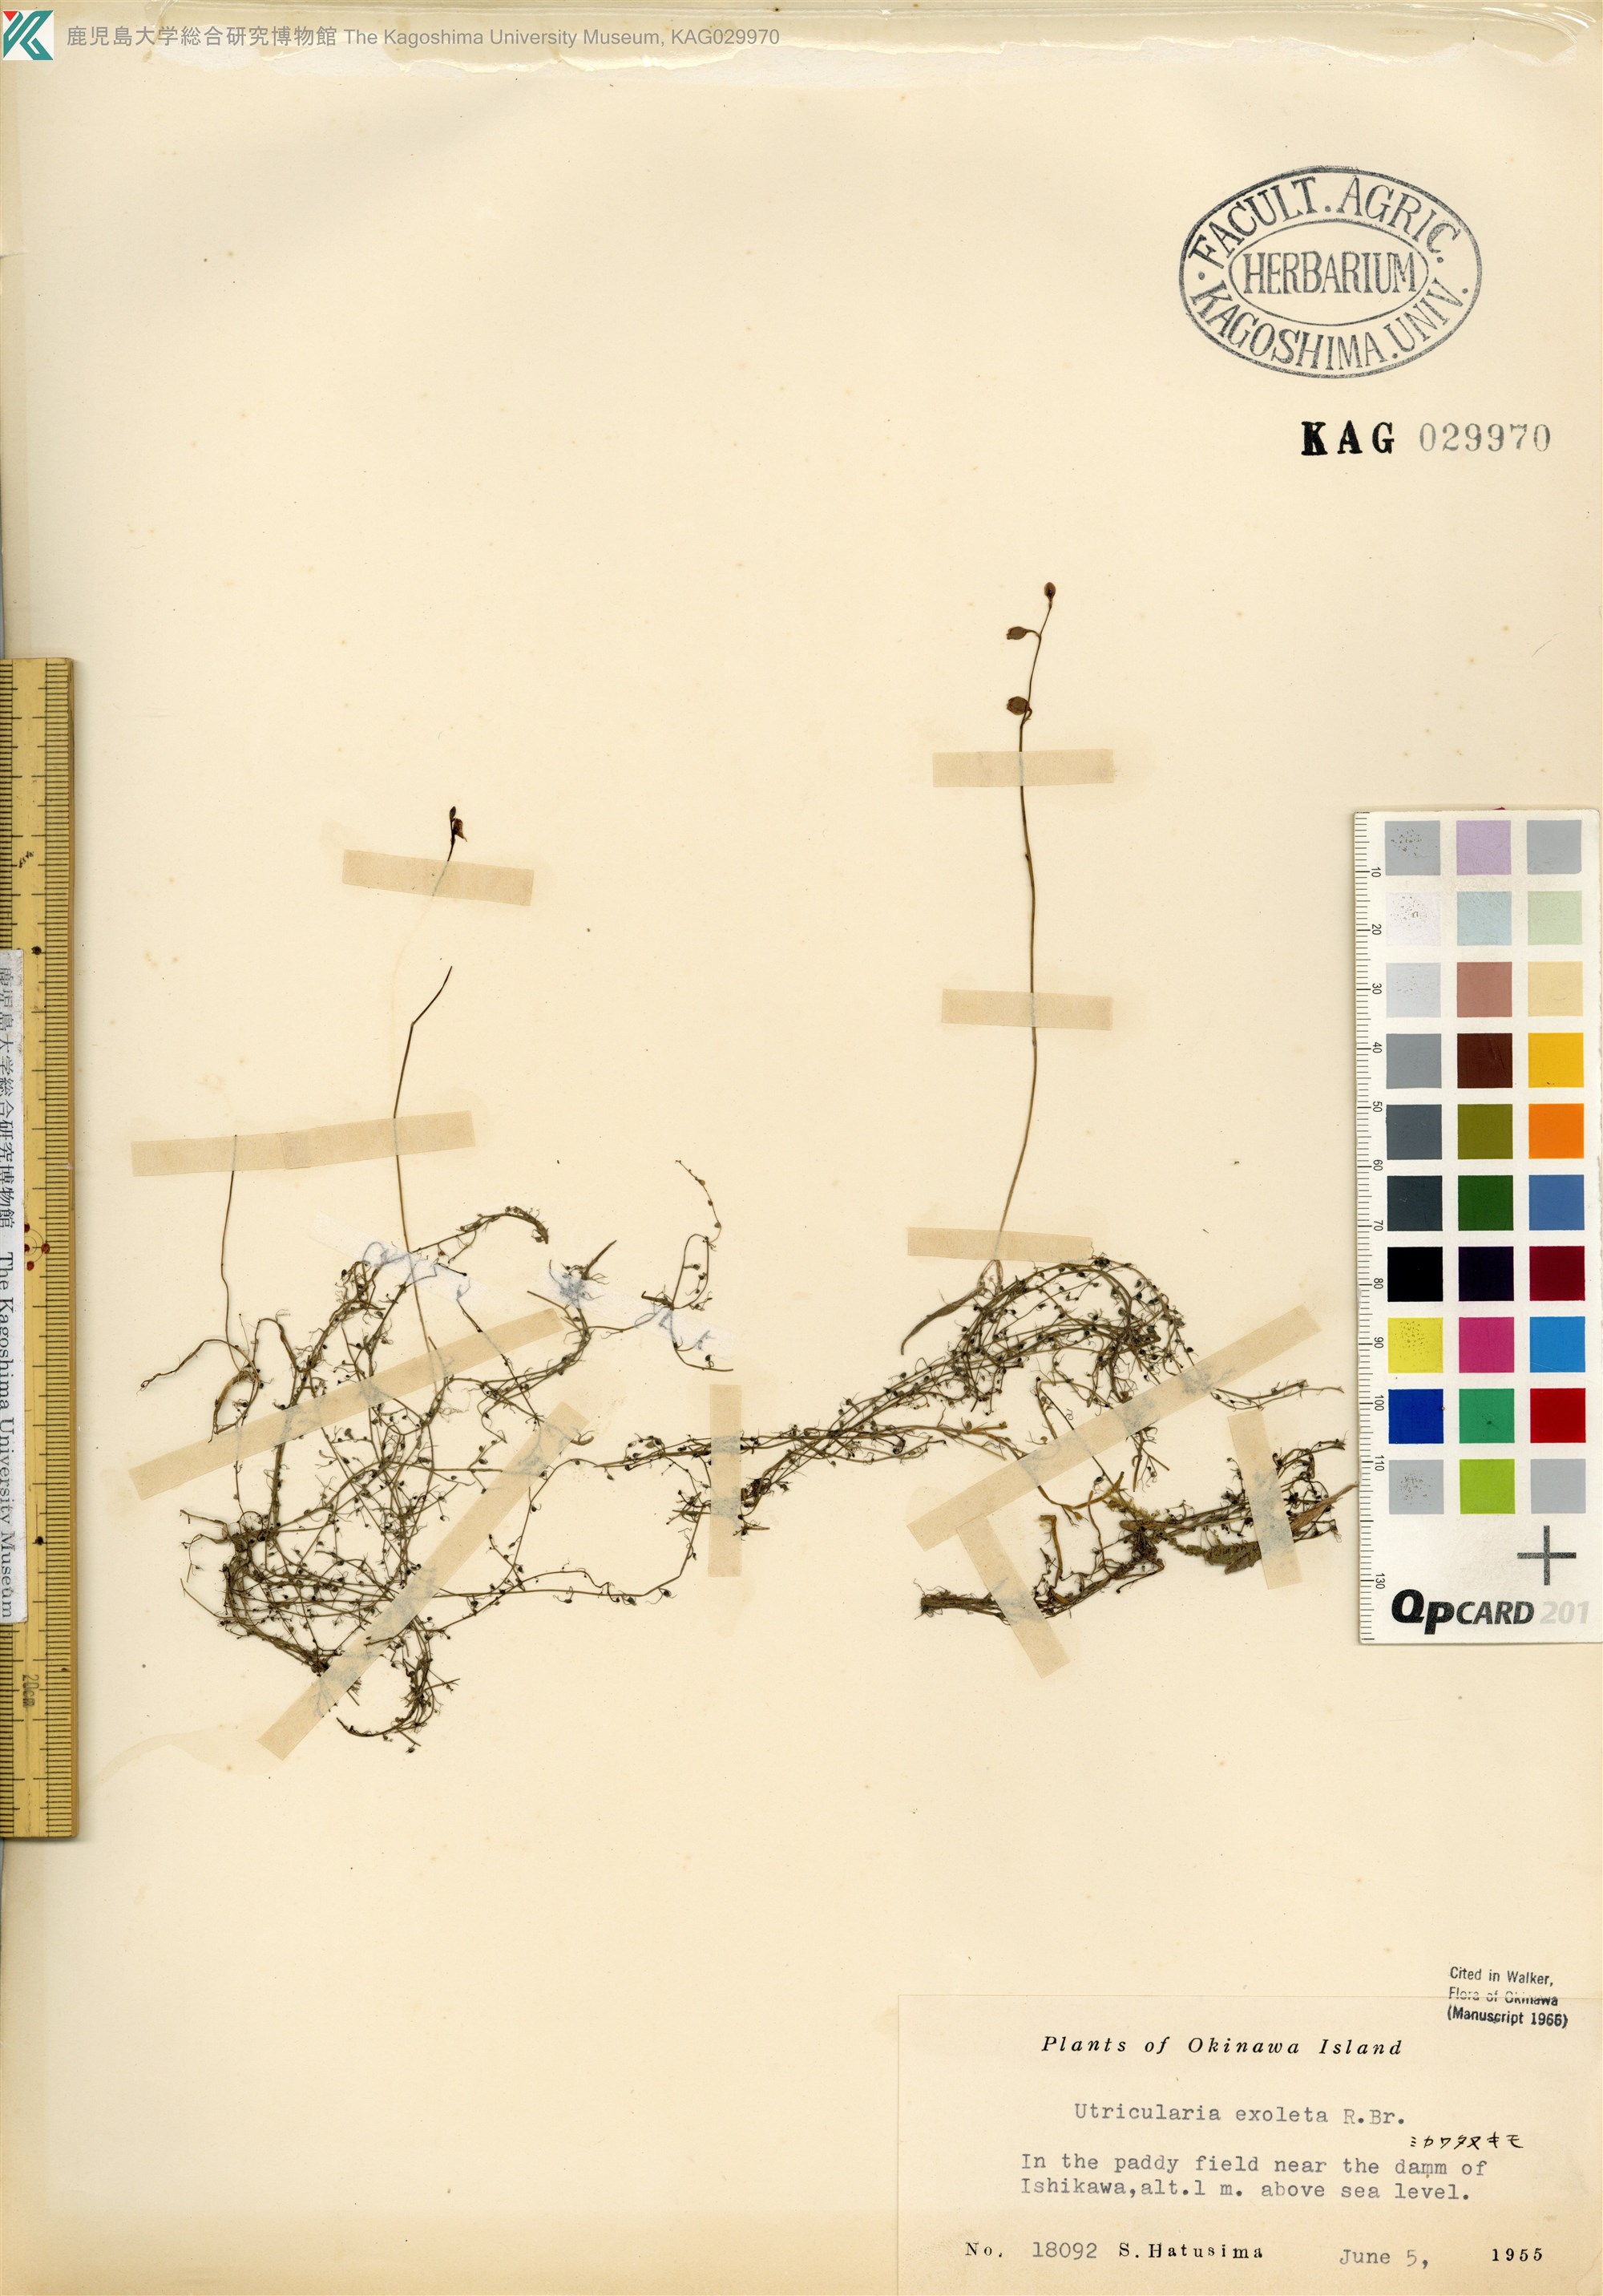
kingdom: Plantae
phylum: Tracheophyta
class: Magnoliopsida
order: Lamiales
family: Lentibulariaceae
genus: Utricularia
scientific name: Utricularia gibba
